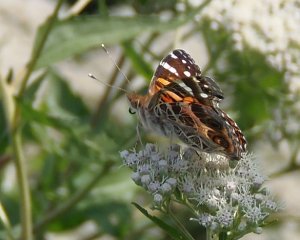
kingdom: Animalia
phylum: Arthropoda
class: Insecta
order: Lepidoptera
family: Nymphalidae
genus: Vanessa
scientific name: Vanessa virginiensis
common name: American Lady
